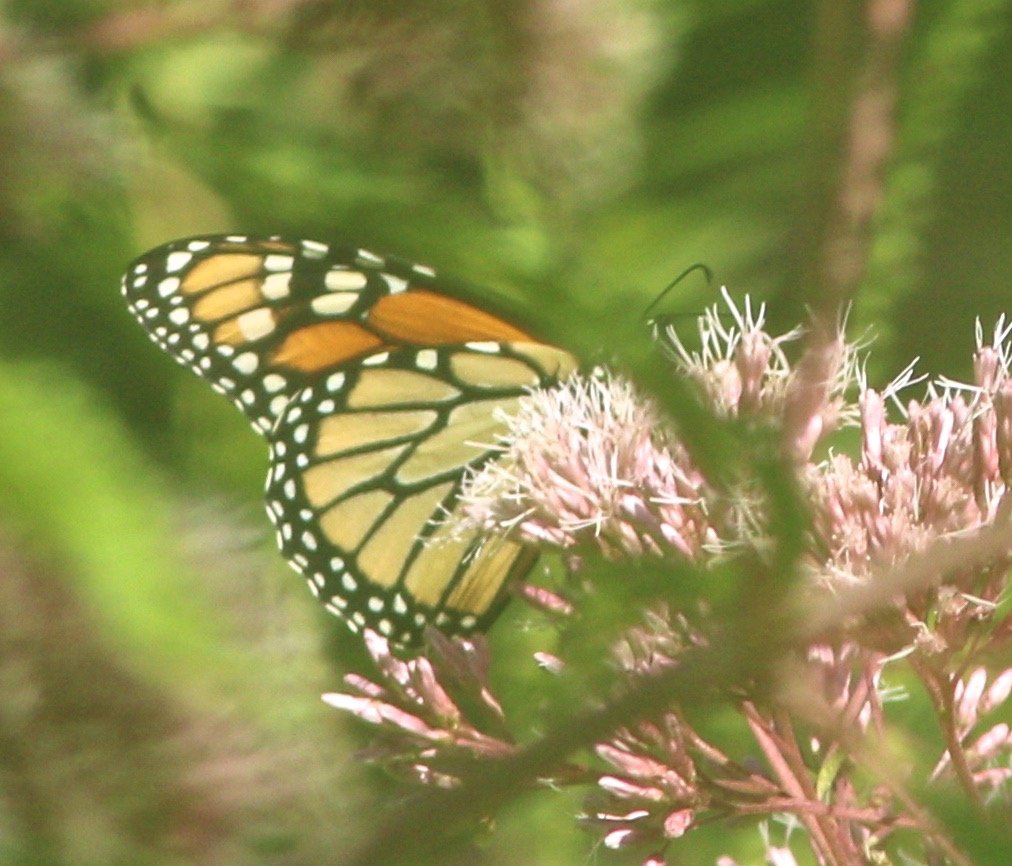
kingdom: Animalia
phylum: Arthropoda
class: Insecta
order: Lepidoptera
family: Nymphalidae
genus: Danaus
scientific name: Danaus plexippus
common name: Monarch
